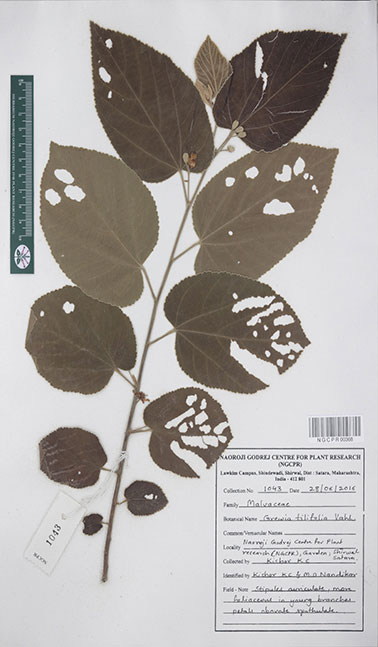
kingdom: Plantae
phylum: Tracheophyta
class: Magnoliopsida
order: Malvales
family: Malvaceae
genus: Grewia
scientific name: Grewia tiliifolia
